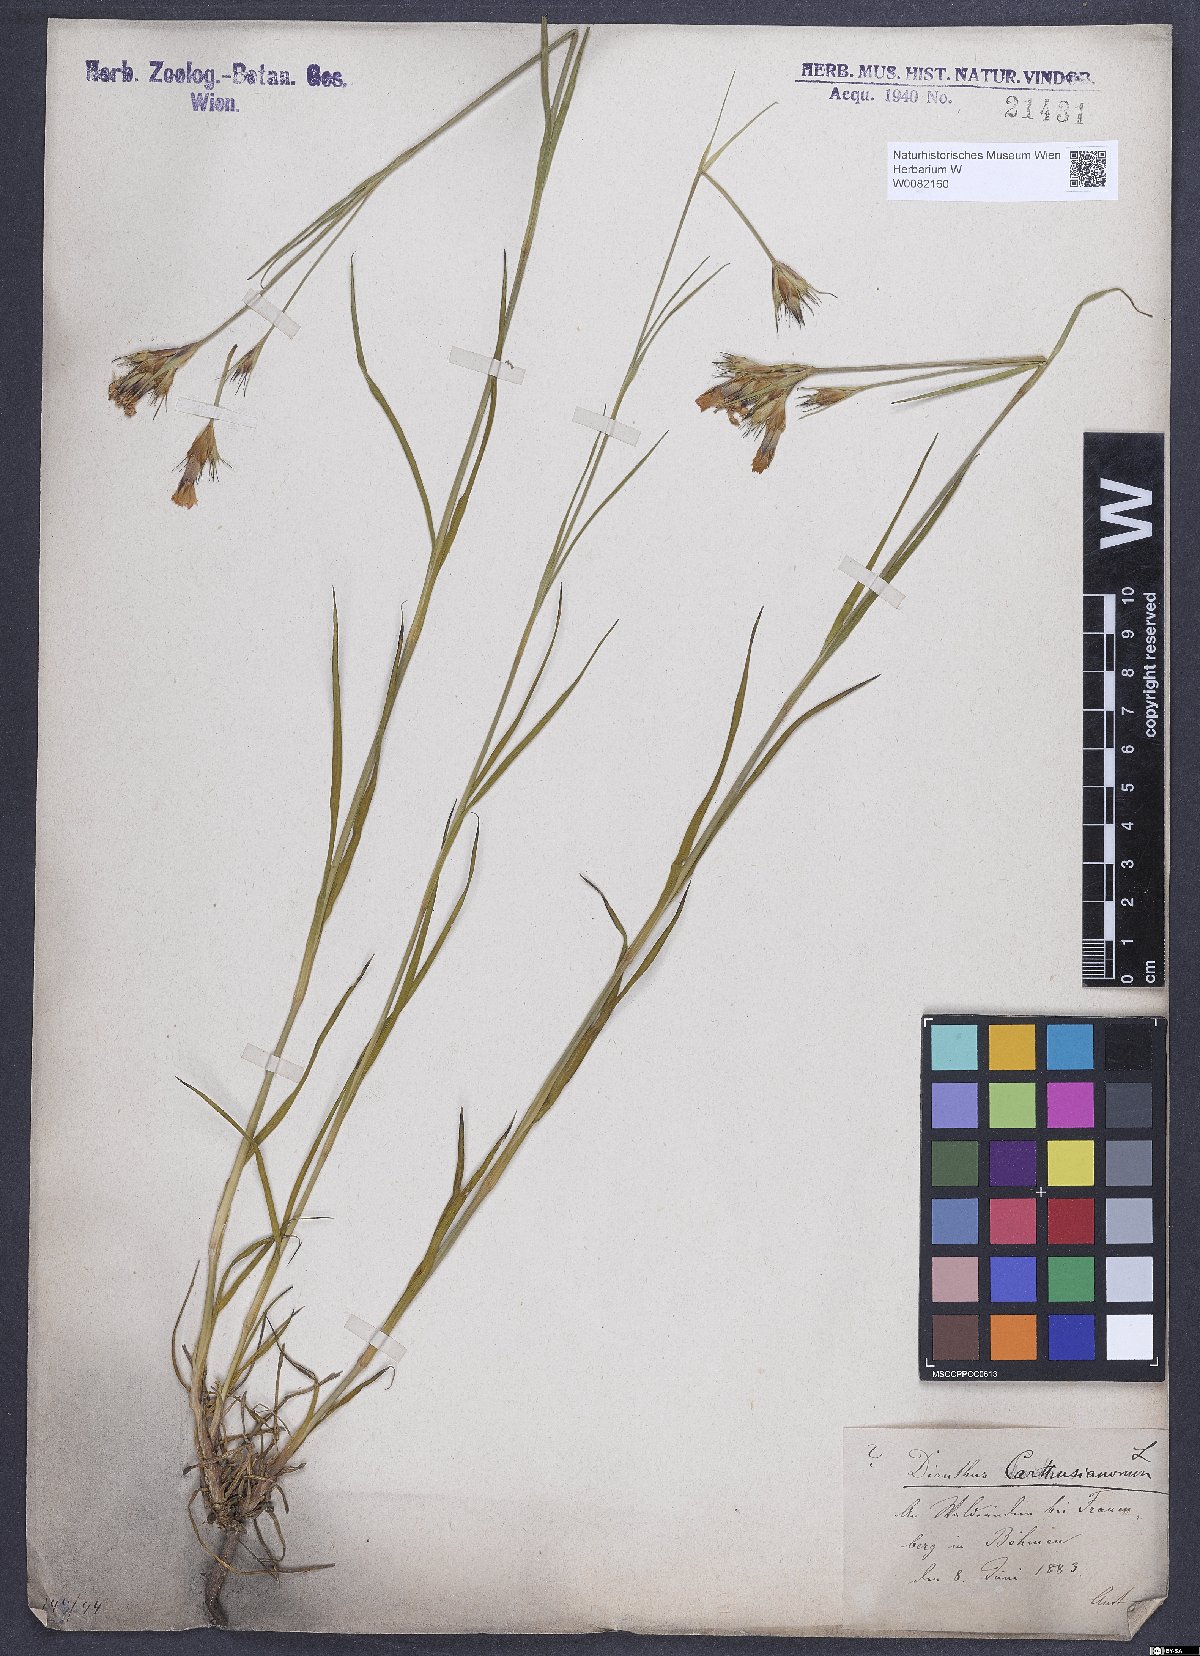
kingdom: Plantae
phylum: Tracheophyta
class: Magnoliopsida
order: Caryophyllales
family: Caryophyllaceae
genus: Dianthus
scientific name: Dianthus carthusianorum
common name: Carthusian pink
